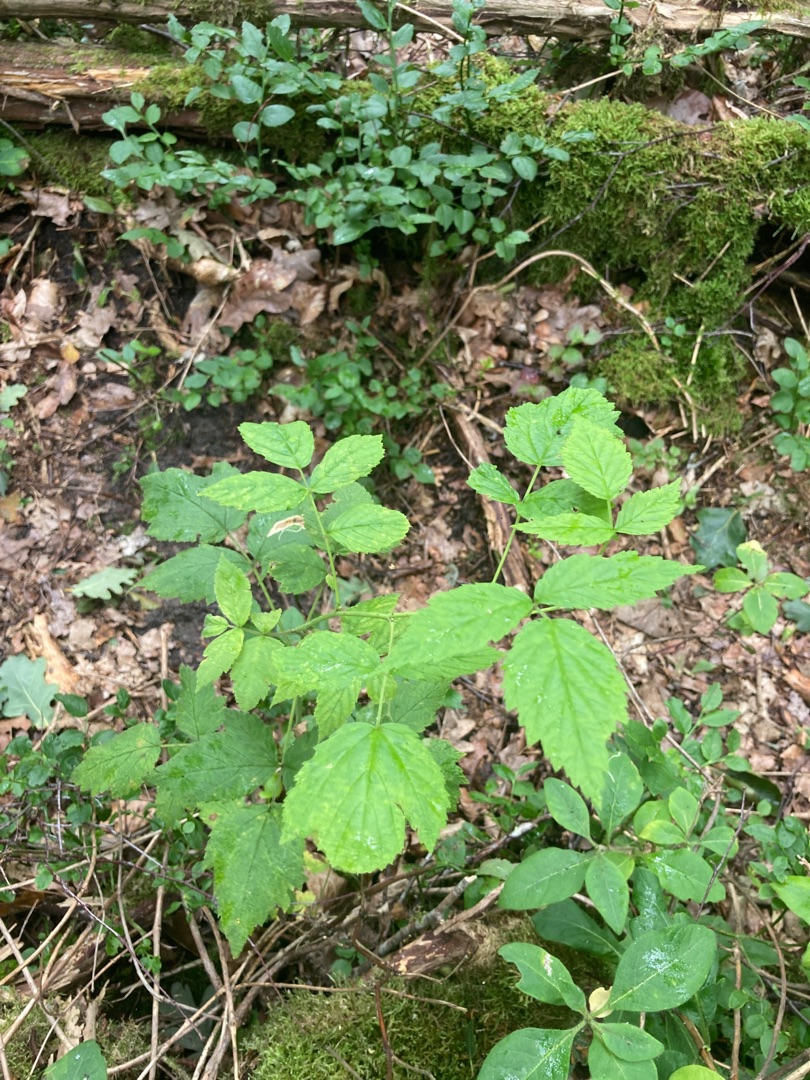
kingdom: Plantae
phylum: Tracheophyta
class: Magnoliopsida
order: Rosales
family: Rosaceae
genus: Rubus
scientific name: Rubus idaeus
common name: Hindbær
